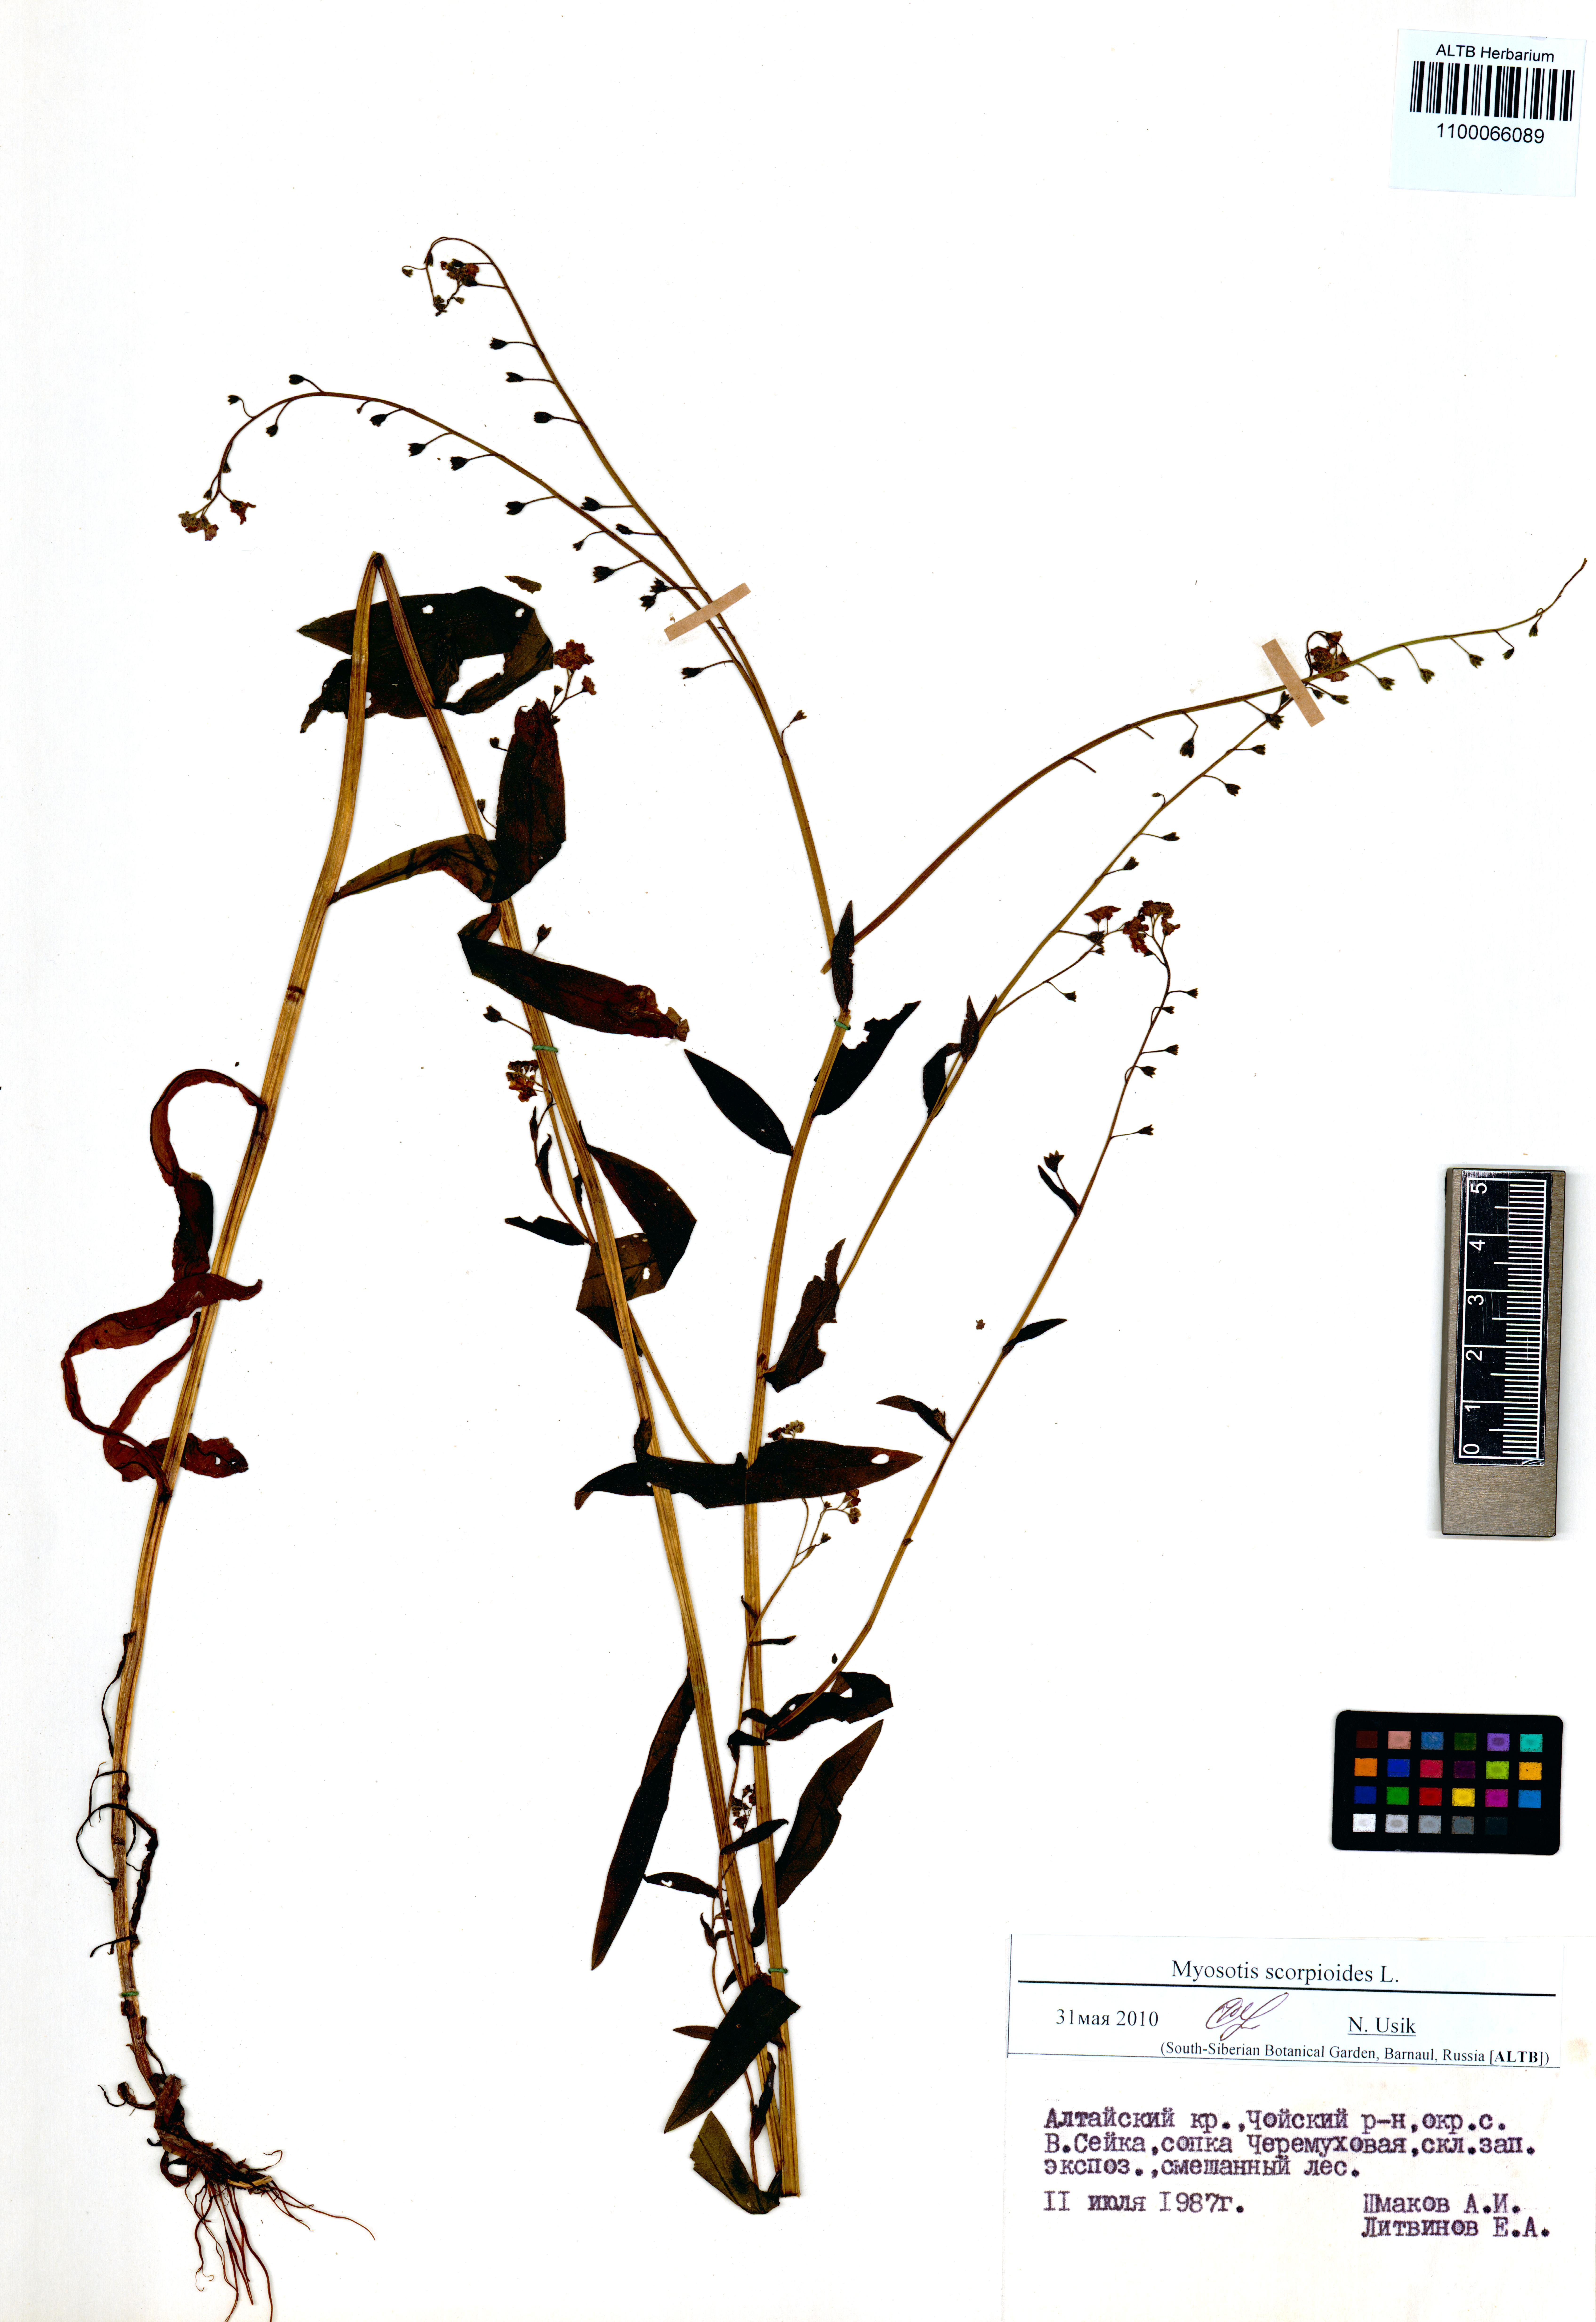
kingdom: Plantae
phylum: Tracheophyta
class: Magnoliopsida
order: Boraginales
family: Boraginaceae
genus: Myosotis
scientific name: Myosotis scorpioides
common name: Water forget-me-not
